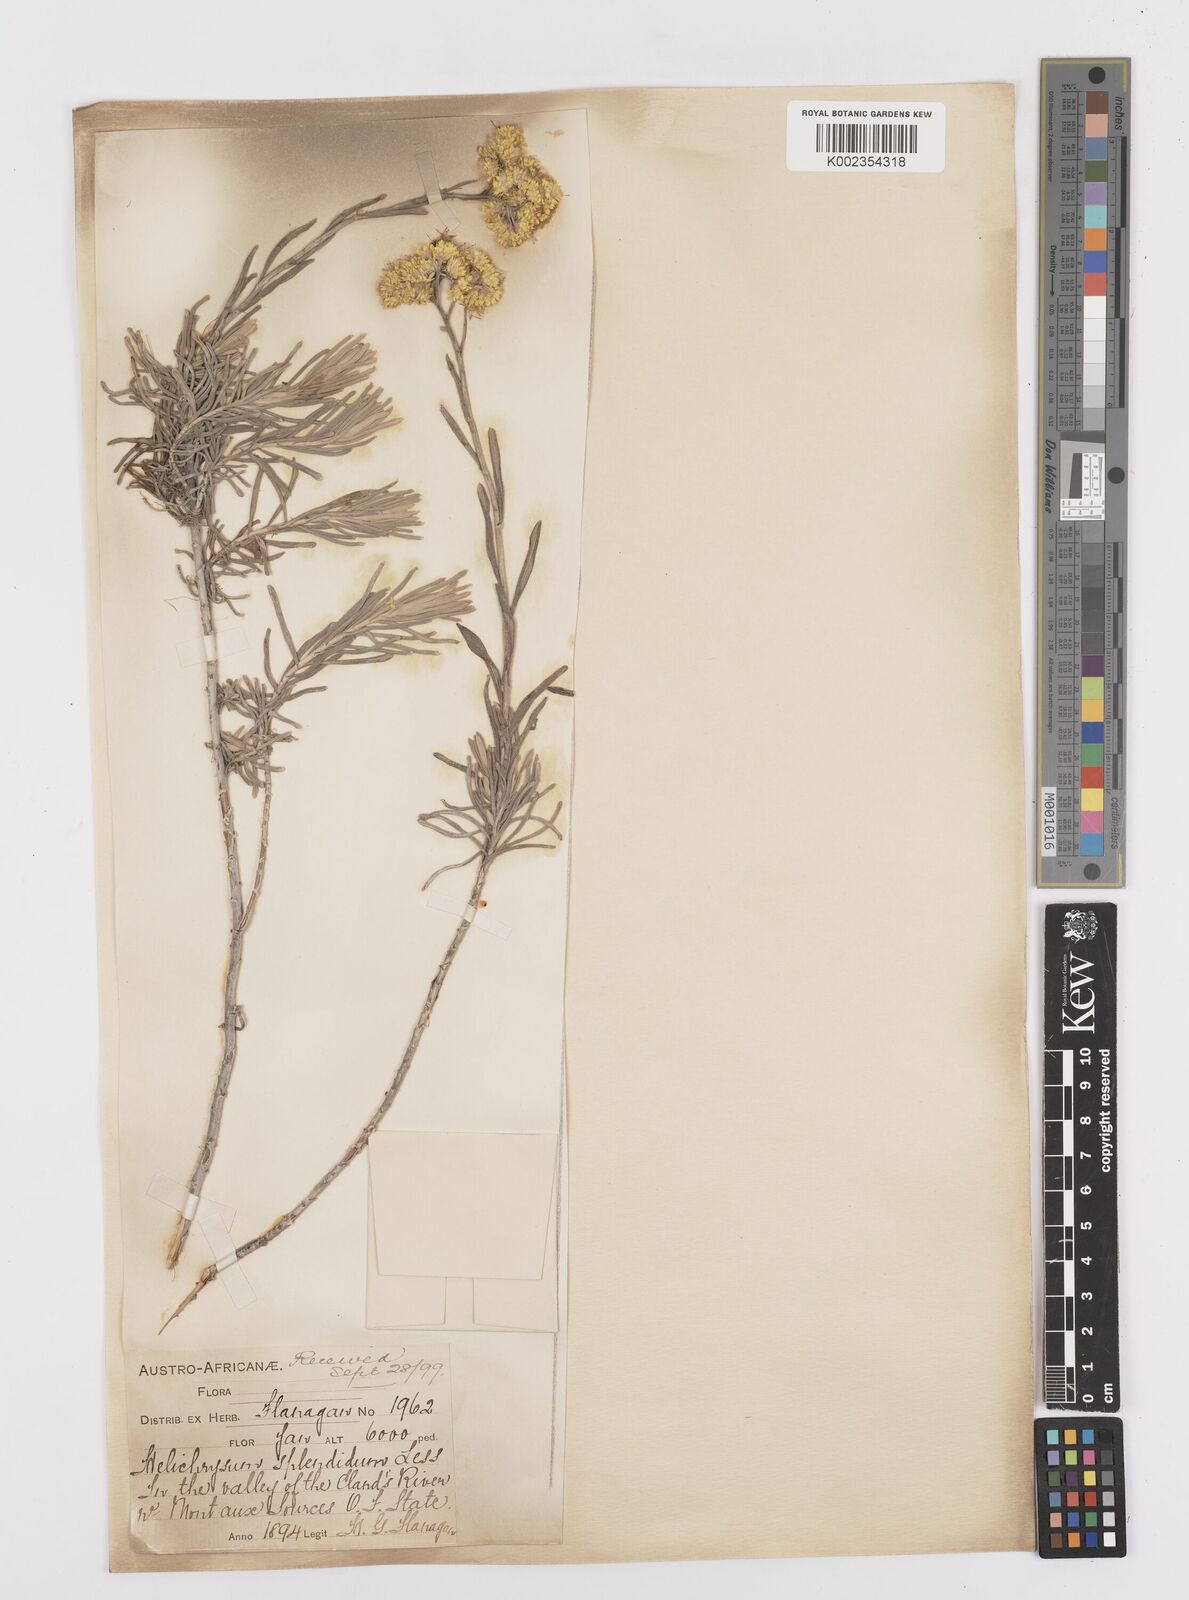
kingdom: Plantae
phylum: Tracheophyta
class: Magnoliopsida
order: Asterales
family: Asteraceae
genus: Helichrysum
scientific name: Helichrysum splendidum
